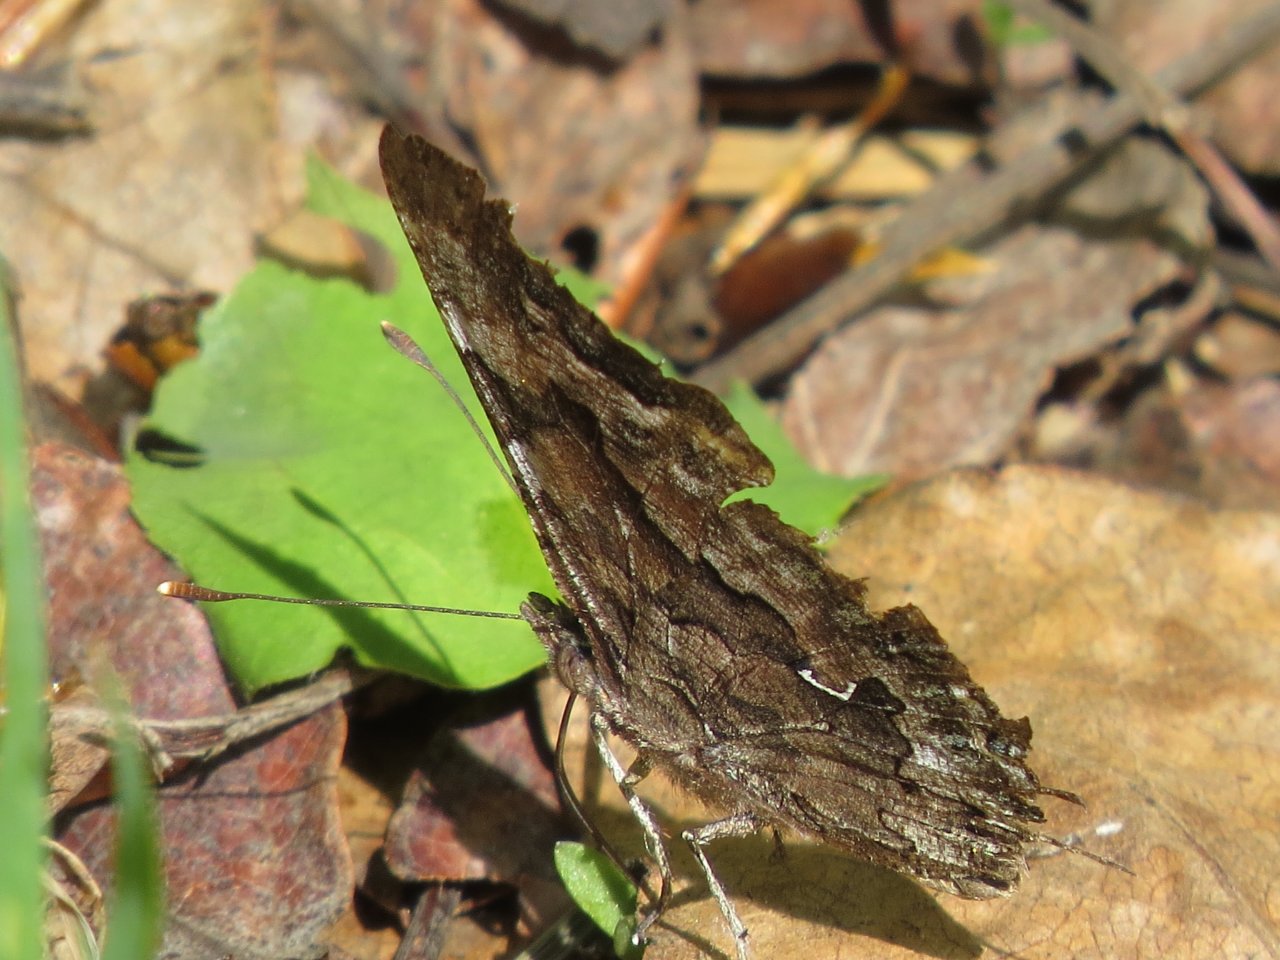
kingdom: Animalia
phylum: Arthropoda
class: Insecta
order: Lepidoptera
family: Nymphalidae
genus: Polygonia
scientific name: Polygonia faunus
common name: Green Comma
